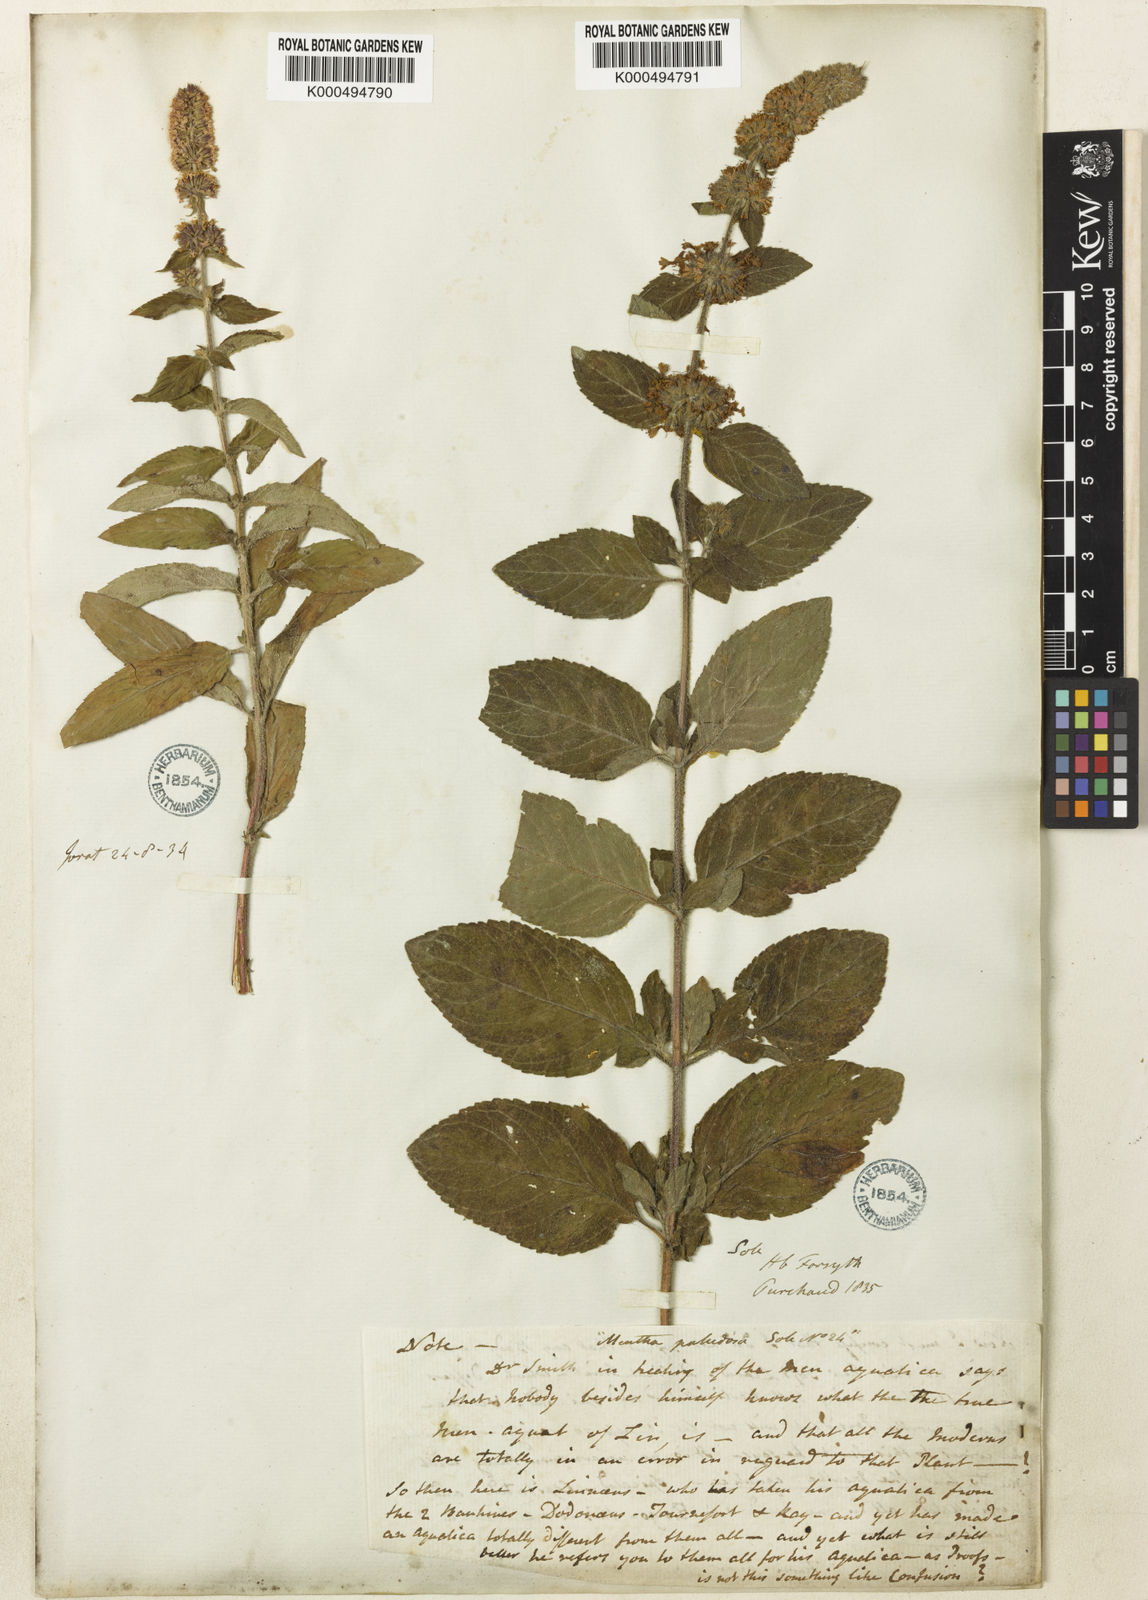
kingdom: Plantae
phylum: Tracheophyta
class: Magnoliopsida
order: Lamiales
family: Lamiaceae
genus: Mentha
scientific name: Mentha verticillata
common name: Mint
